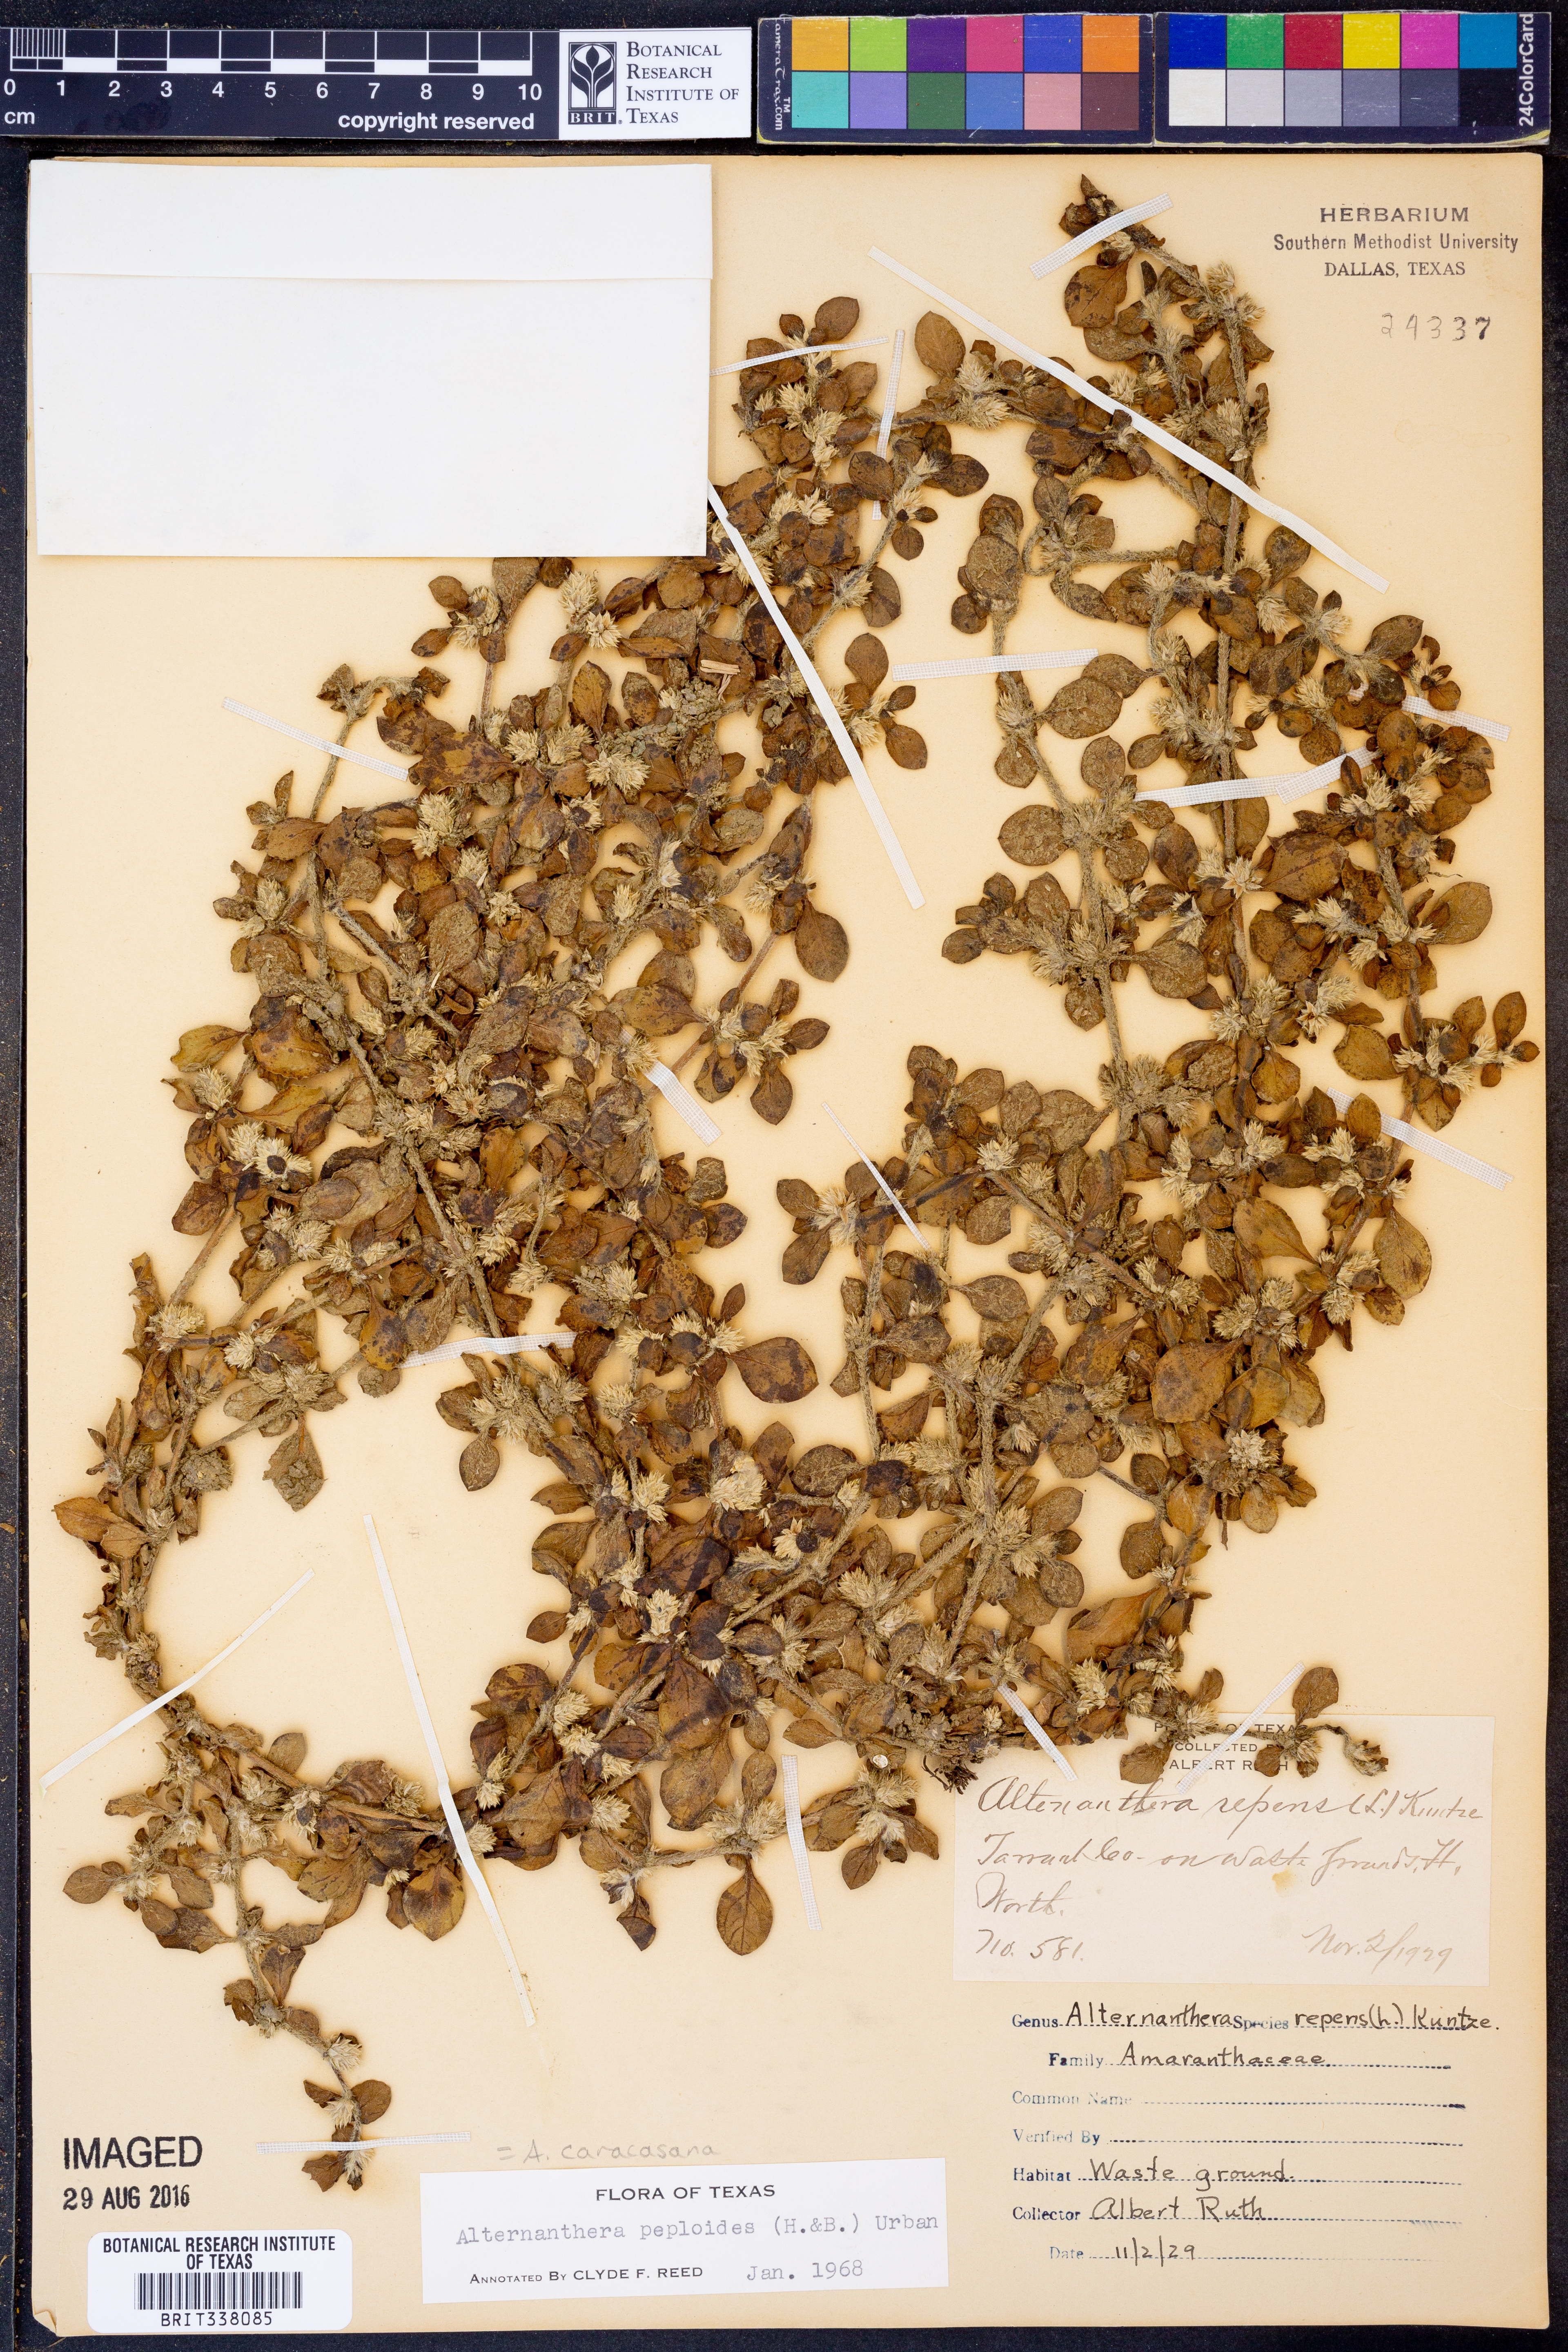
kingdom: Plantae
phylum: Tracheophyta
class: Magnoliopsida
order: Caryophyllales
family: Amaranthaceae
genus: Alternanthera
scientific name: Alternanthera caracasana
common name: Washerwoman
